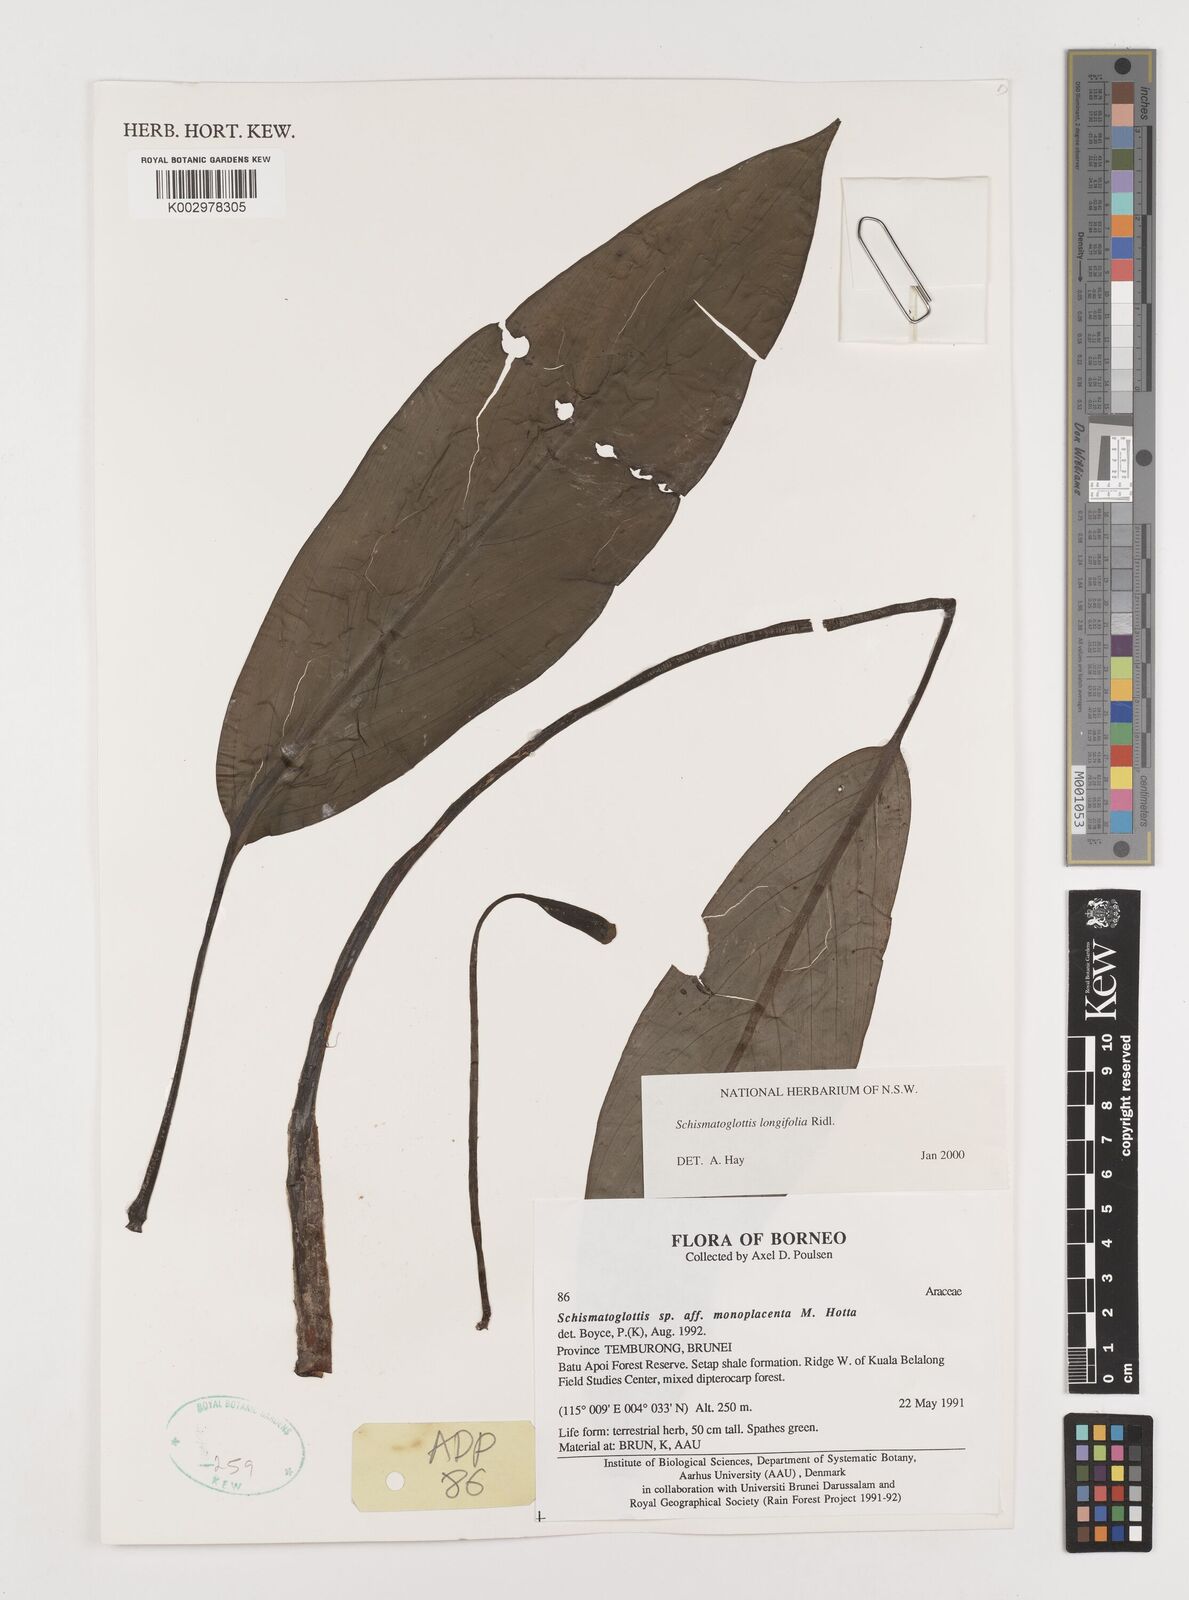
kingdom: Plantae
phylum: Tracheophyta
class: Liliopsida
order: Alismatales
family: Araceae
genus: Vesta
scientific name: Vesta longifolia
